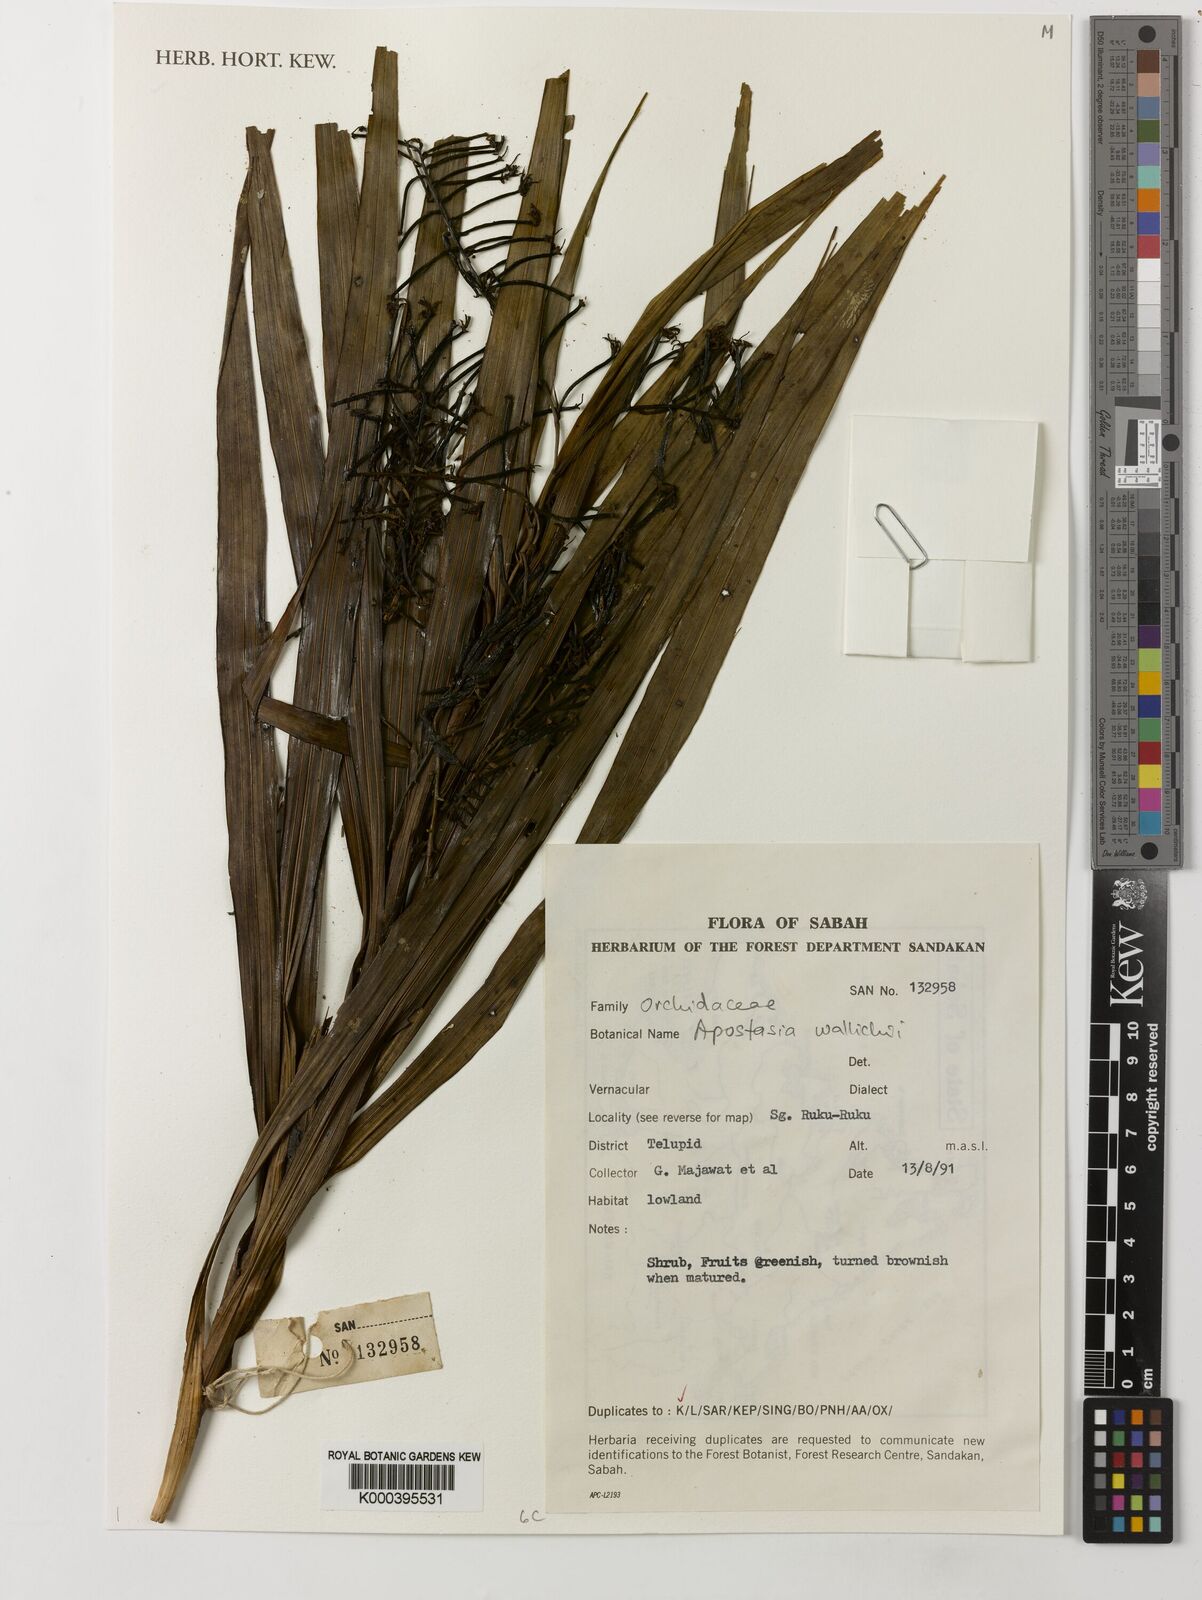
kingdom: Plantae
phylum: Tracheophyta
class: Liliopsida
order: Asparagales
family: Orchidaceae
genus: Apostasia
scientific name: Apostasia
